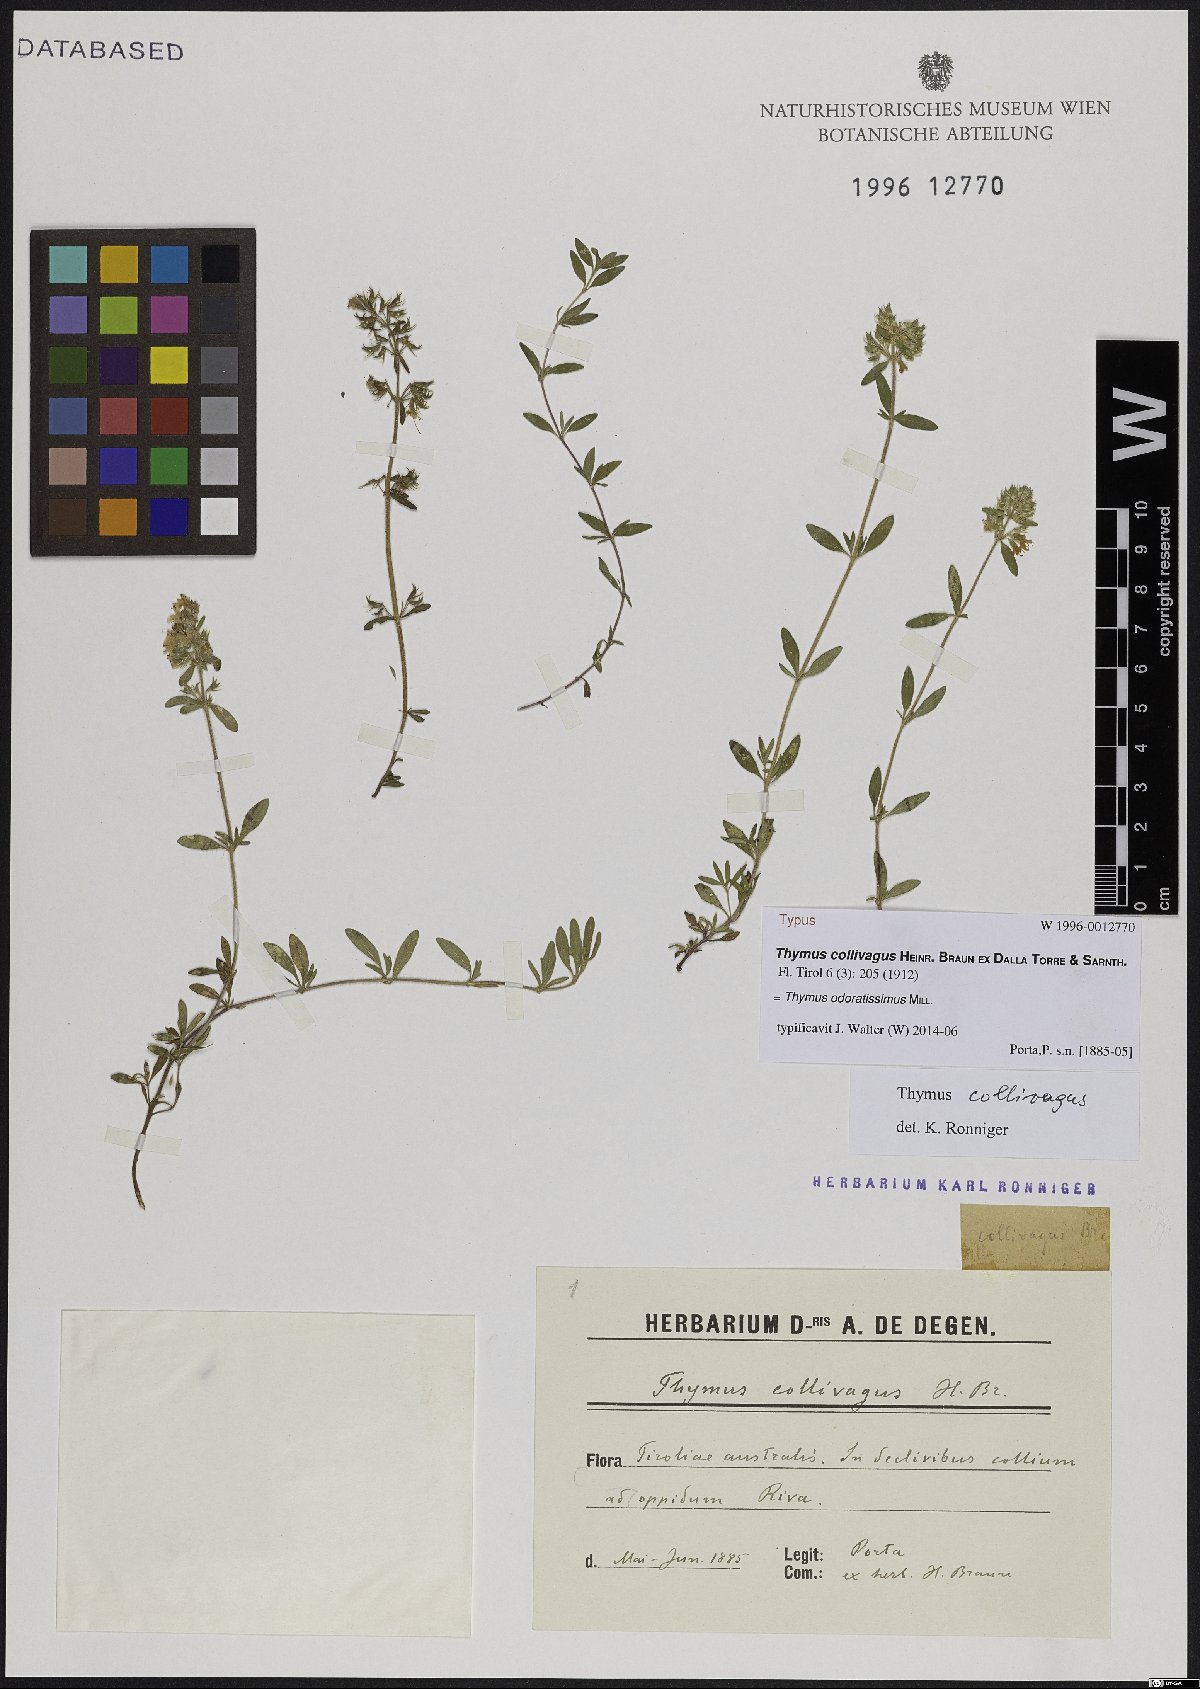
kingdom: Plantae
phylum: Tracheophyta
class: Magnoliopsida
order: Lamiales
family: Lamiaceae
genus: Thymus
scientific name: Thymus odoratissimus
